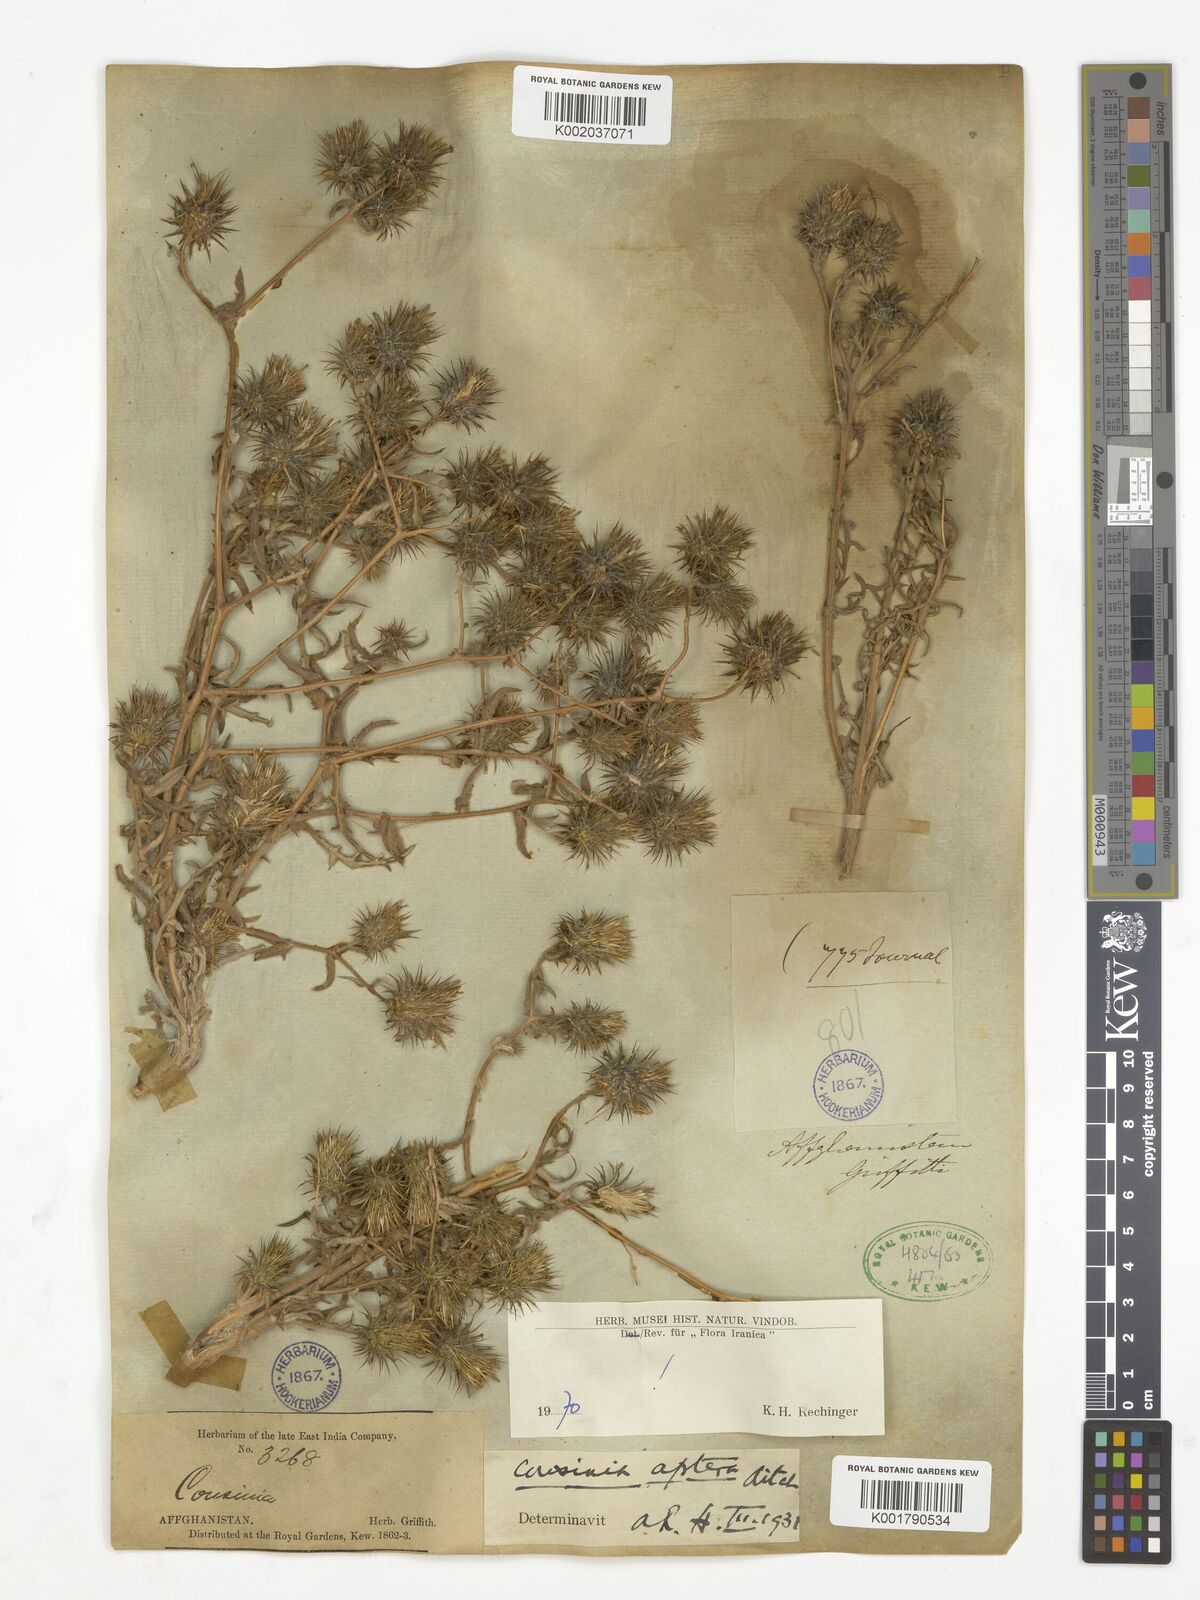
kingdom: Plantae
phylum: Tracheophyta
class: Magnoliopsida
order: Asterales
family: Asteraceae
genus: Cousinia
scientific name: Cousinia aptera
